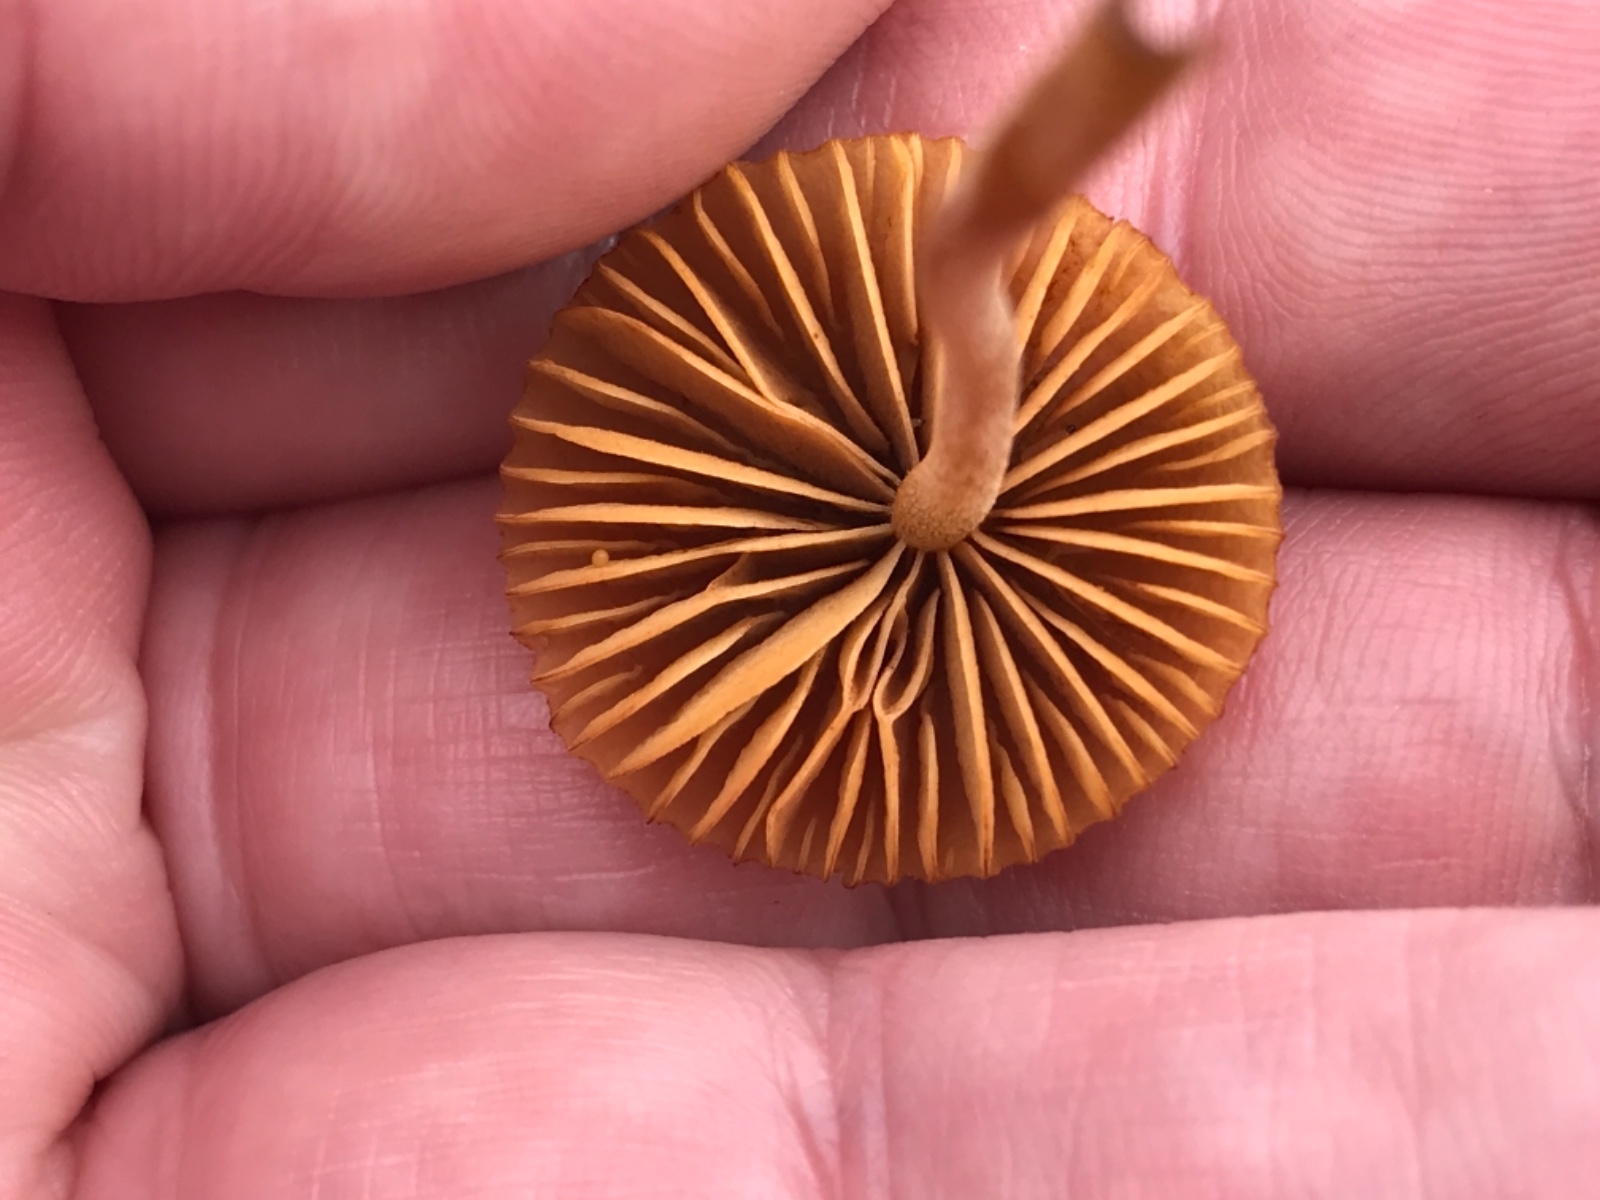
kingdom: Fungi
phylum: Basidiomycota
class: Agaricomycetes
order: Agaricales
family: Hymenogastraceae
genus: Galerina
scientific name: Galerina
